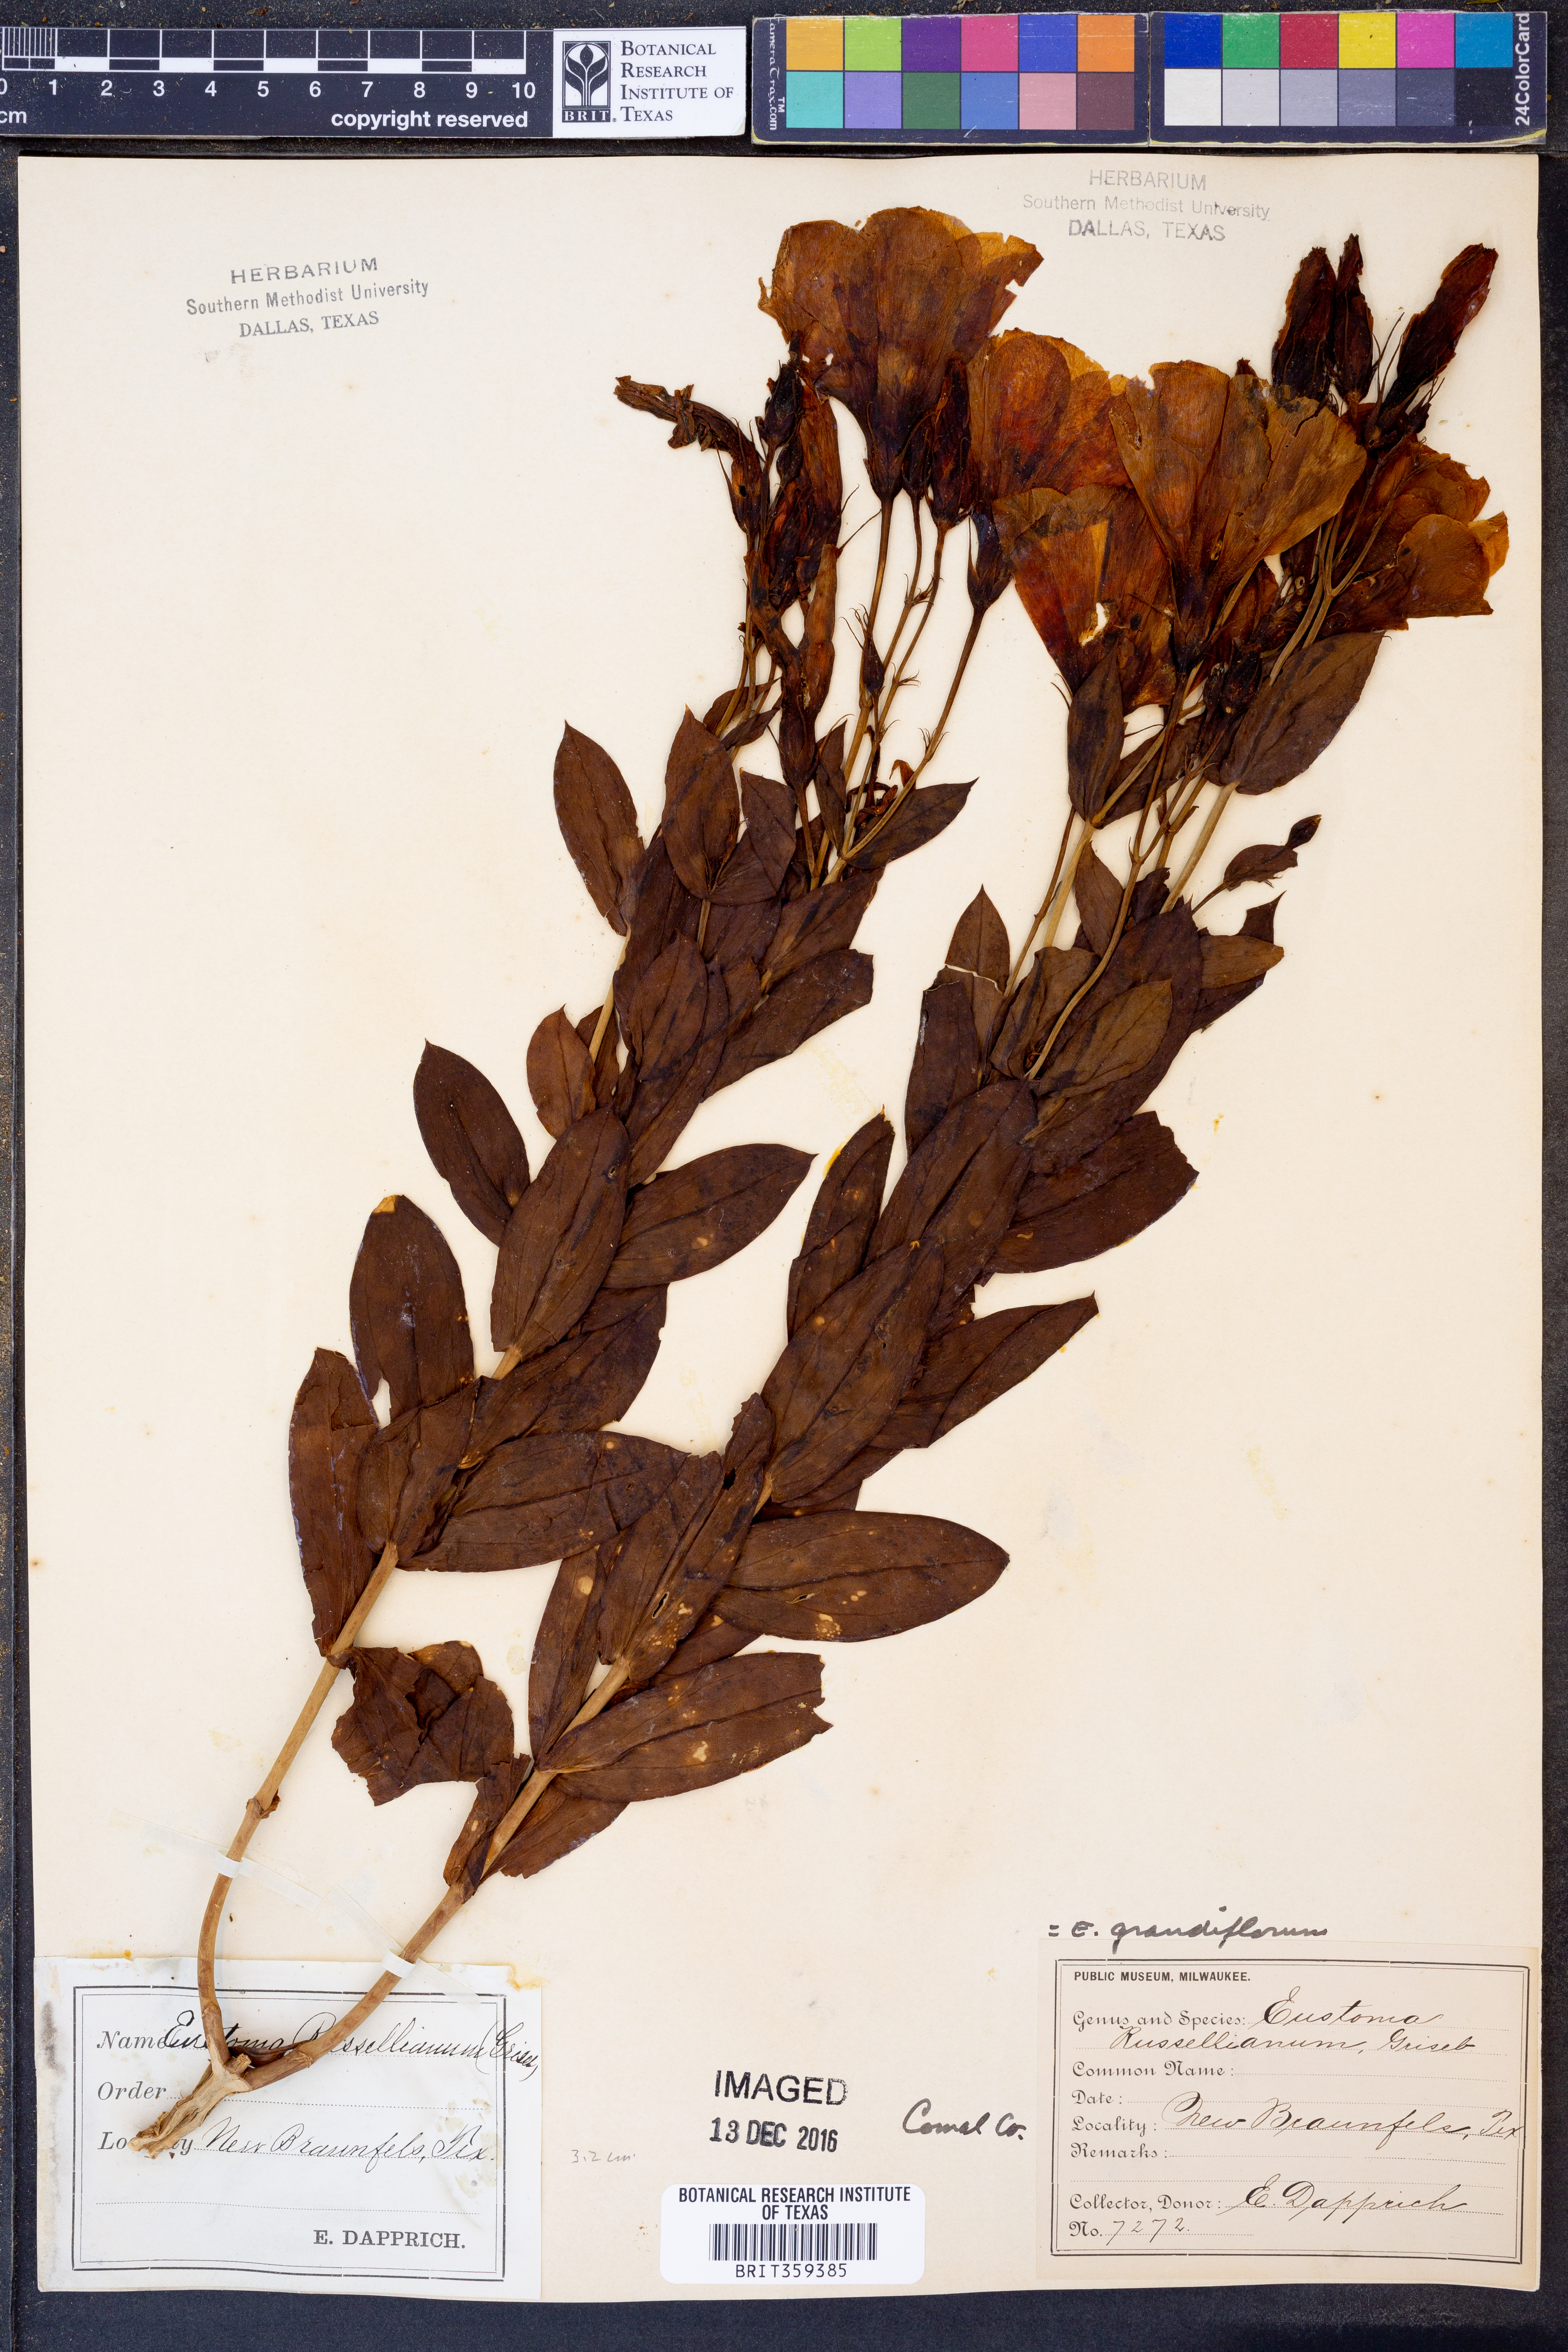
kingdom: Plantae
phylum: Tracheophyta
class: Magnoliopsida
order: Gentianales
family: Gentianaceae
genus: Eustoma
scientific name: Eustoma russellianum
